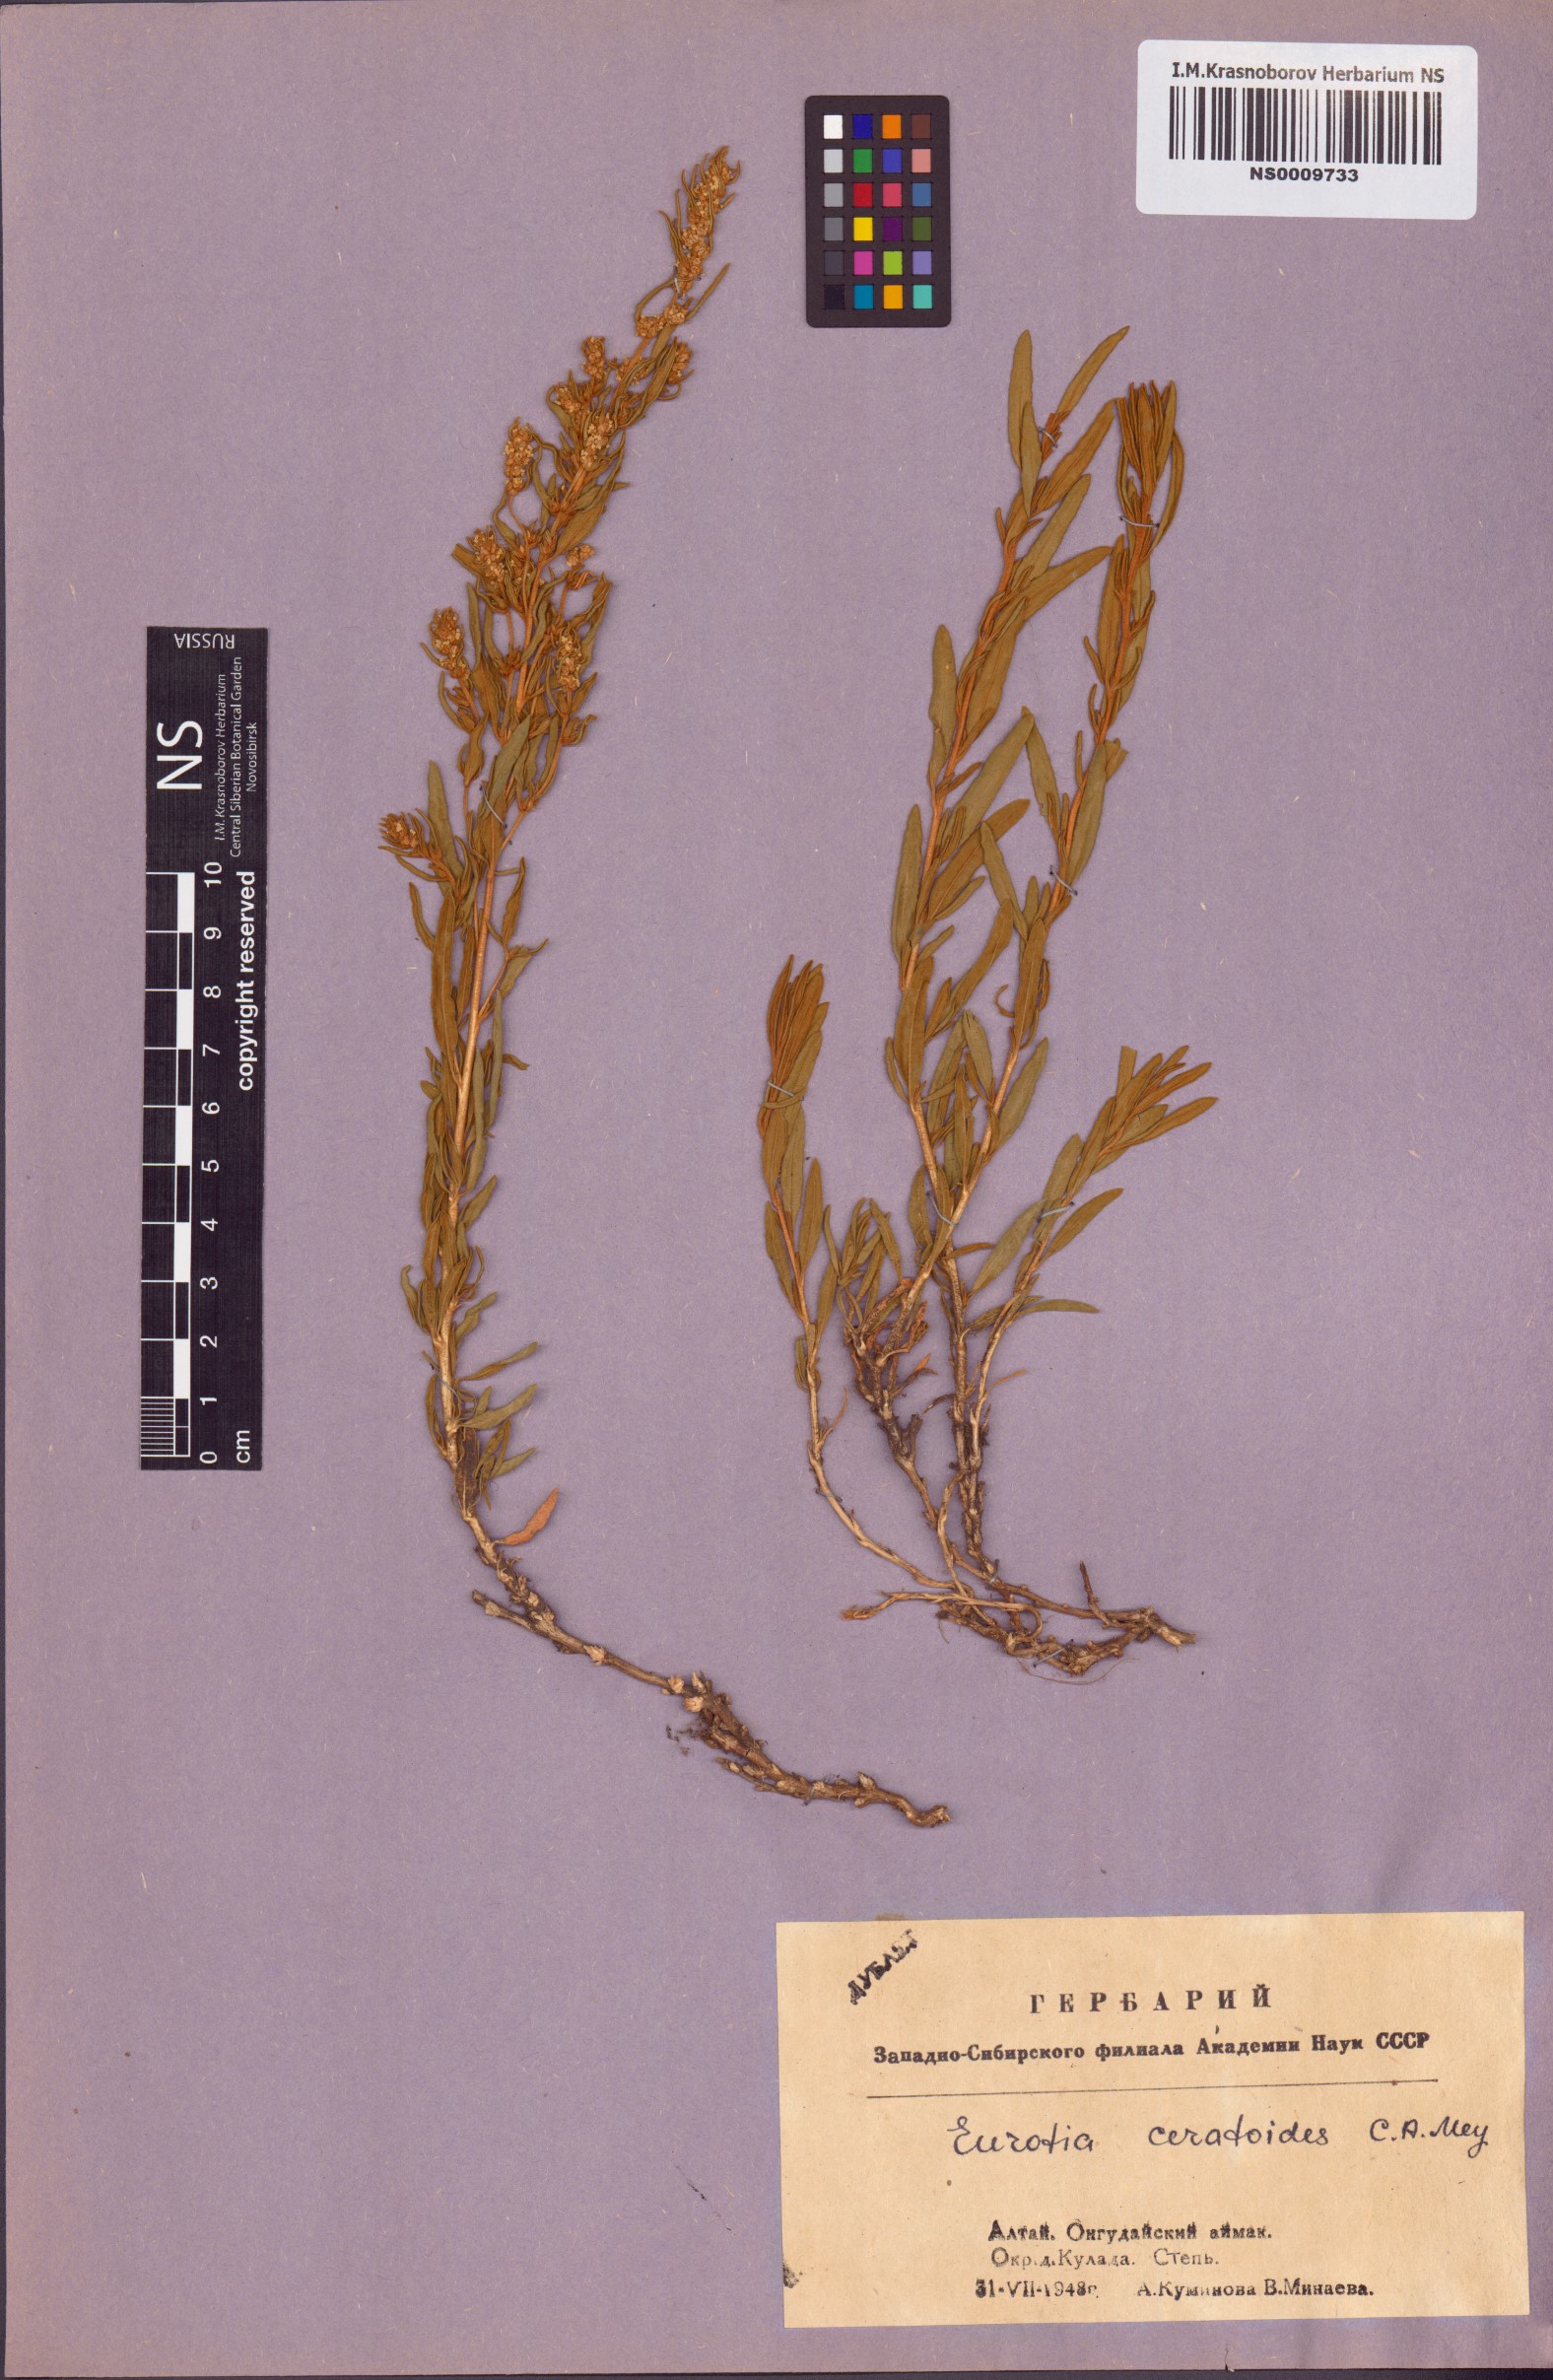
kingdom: Plantae
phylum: Tracheophyta
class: Magnoliopsida
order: Caryophyllales
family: Amaranthaceae
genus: Krascheninnikovia
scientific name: Krascheninnikovia ceratoides
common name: Pamirian winterfat
